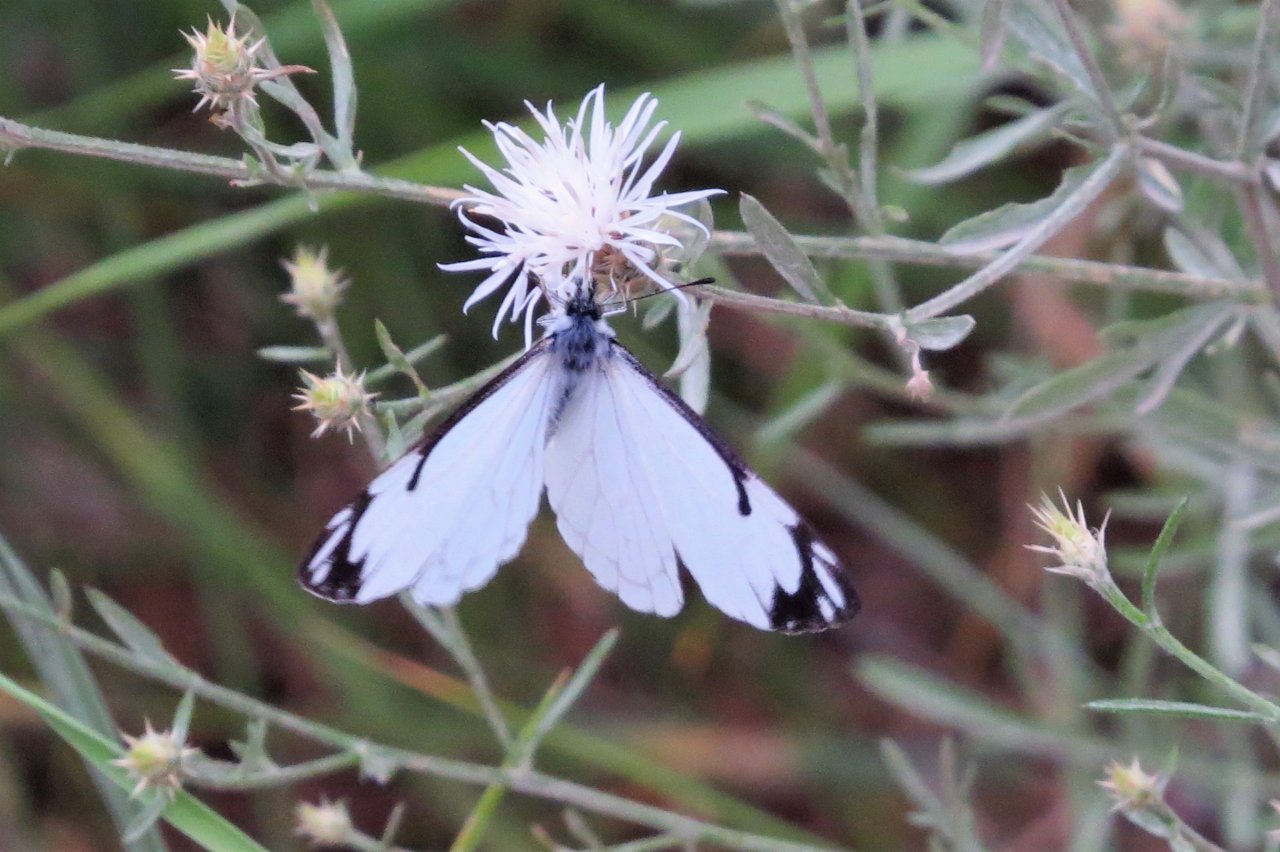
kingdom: Animalia
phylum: Arthropoda
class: Insecta
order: Lepidoptera
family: Pieridae
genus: Neophasia
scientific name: Neophasia menapia
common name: Pine White
